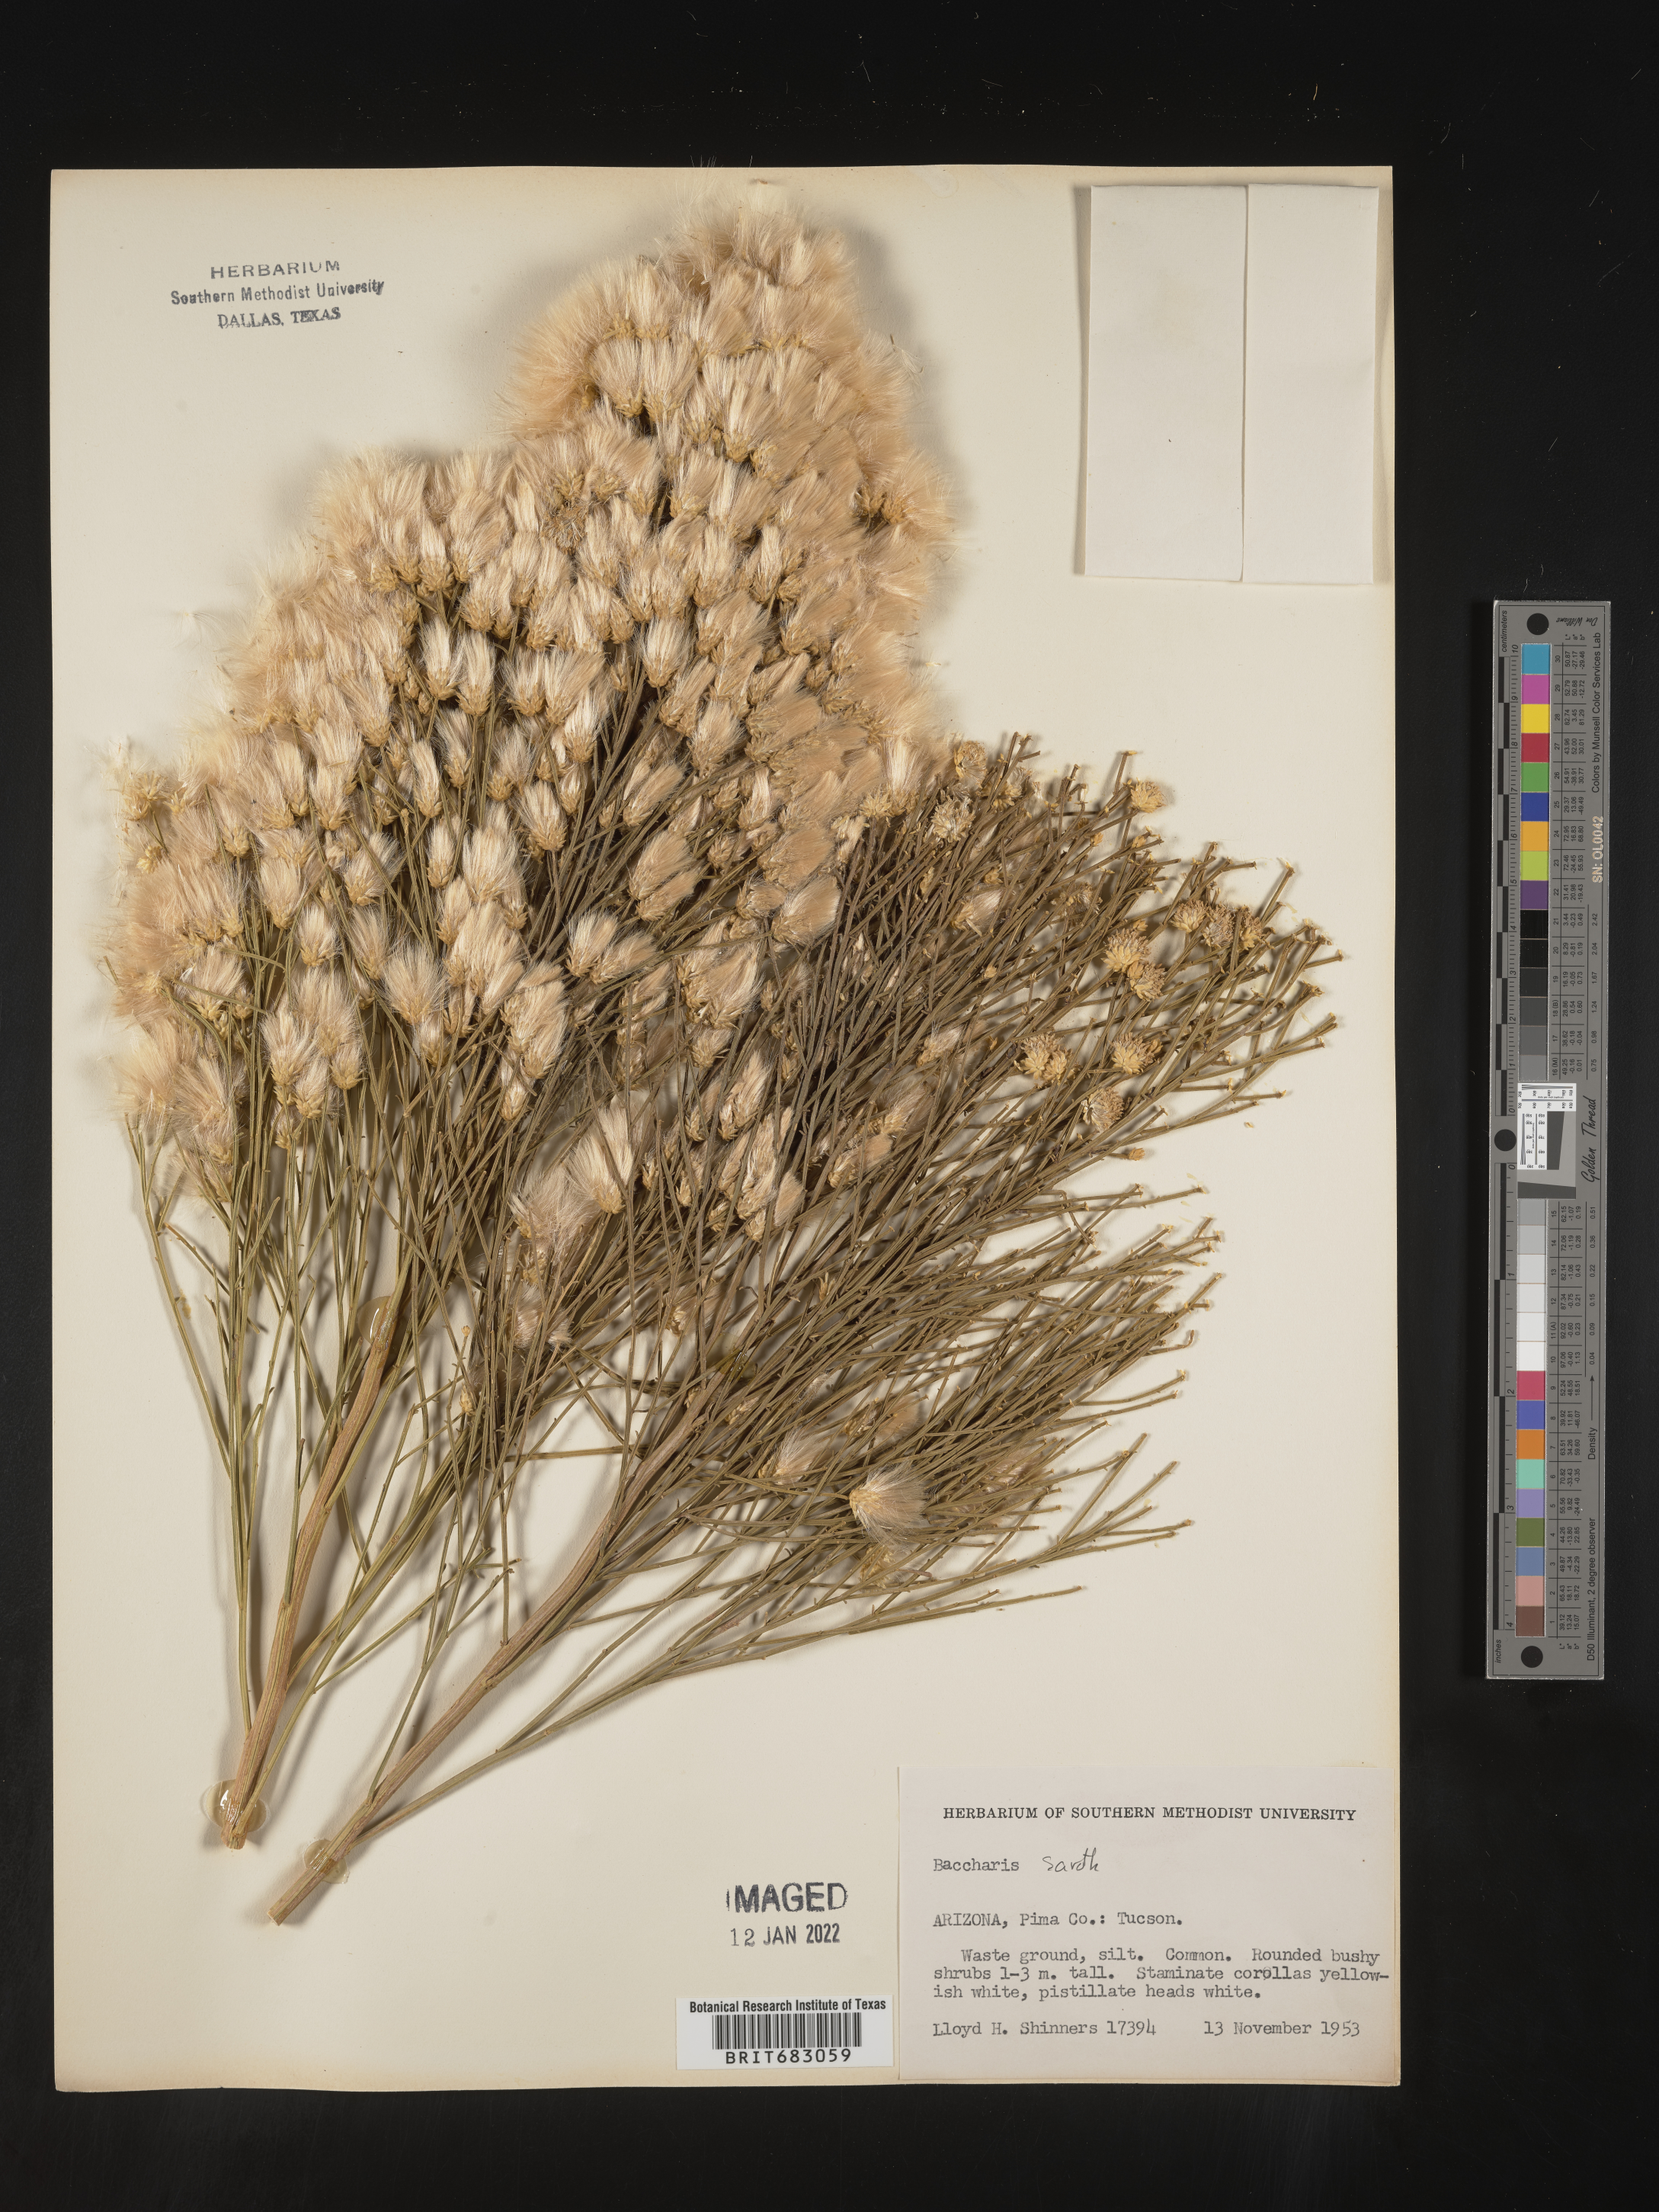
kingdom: Plantae
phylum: Tracheophyta
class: Magnoliopsida
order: Asterales
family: Asteraceae
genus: Baccharis
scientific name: Baccharis sarothroides
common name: Desert-broom
